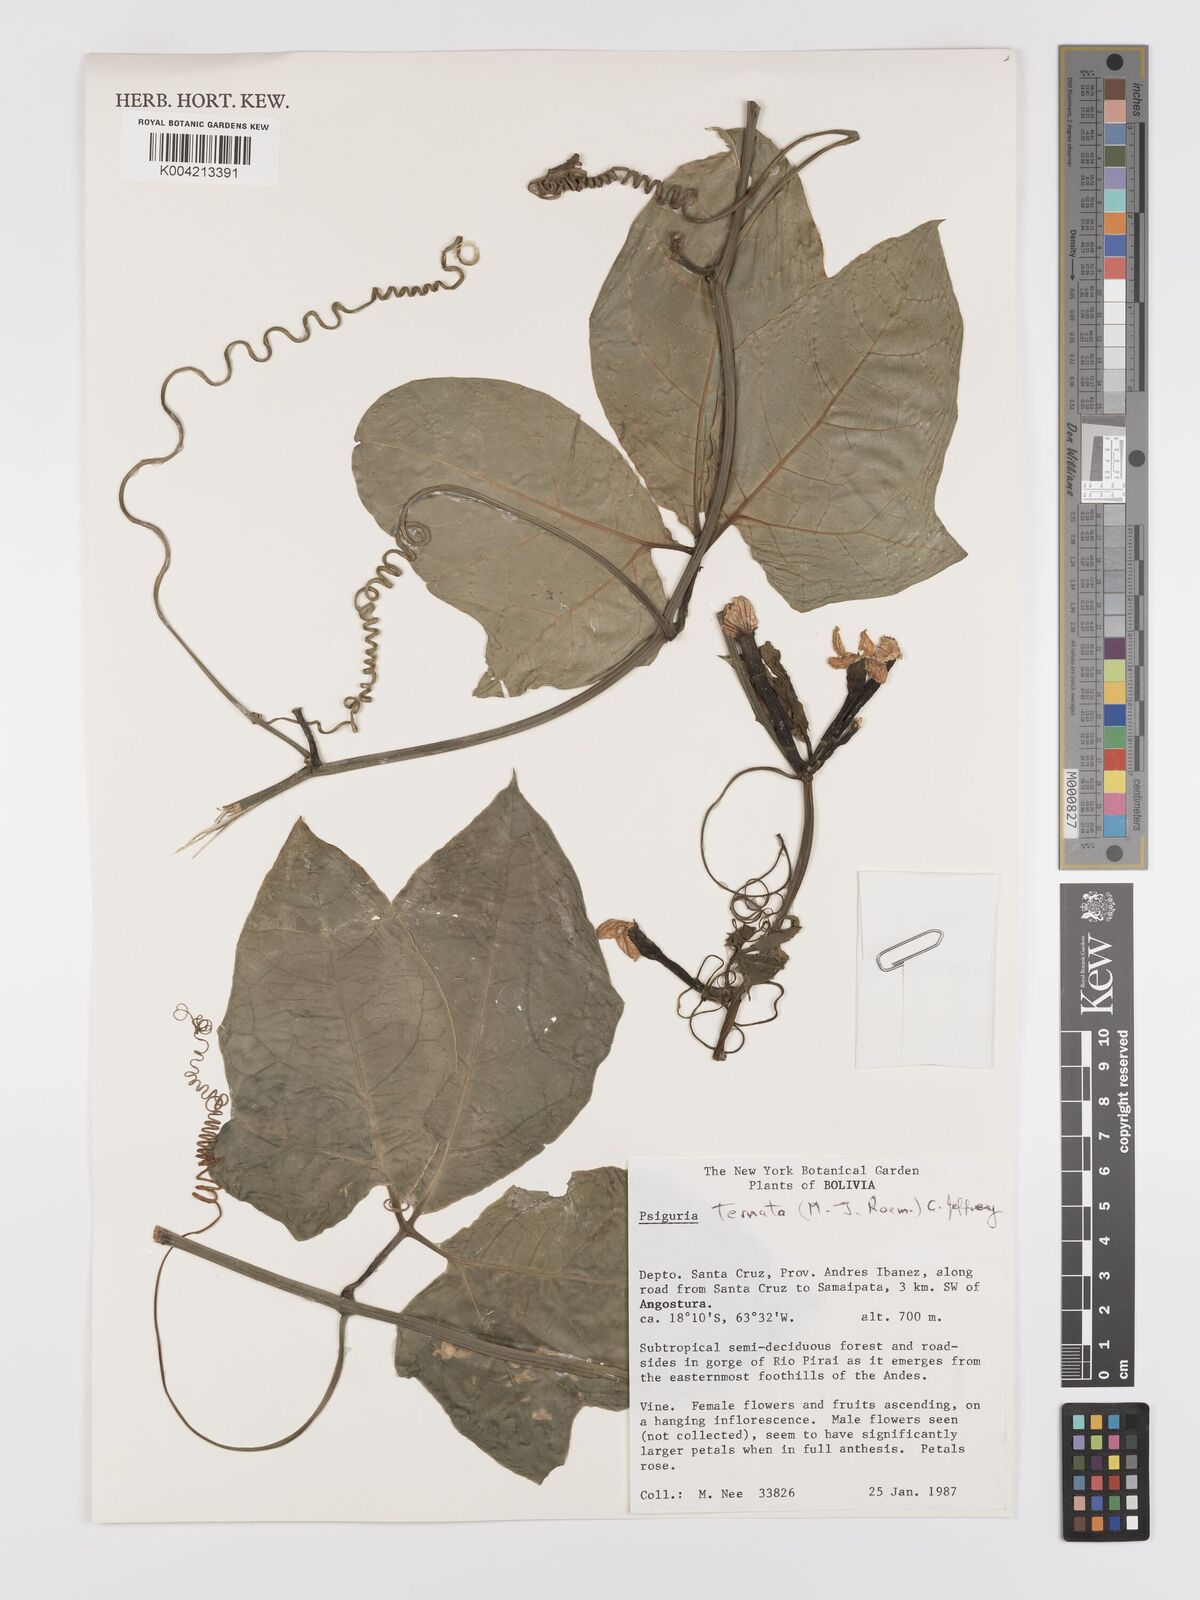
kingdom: Plantae
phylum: Tracheophyta
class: Magnoliopsida
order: Cucurbitales
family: Cucurbitaceae
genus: Psiguria
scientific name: Psiguria ternata
